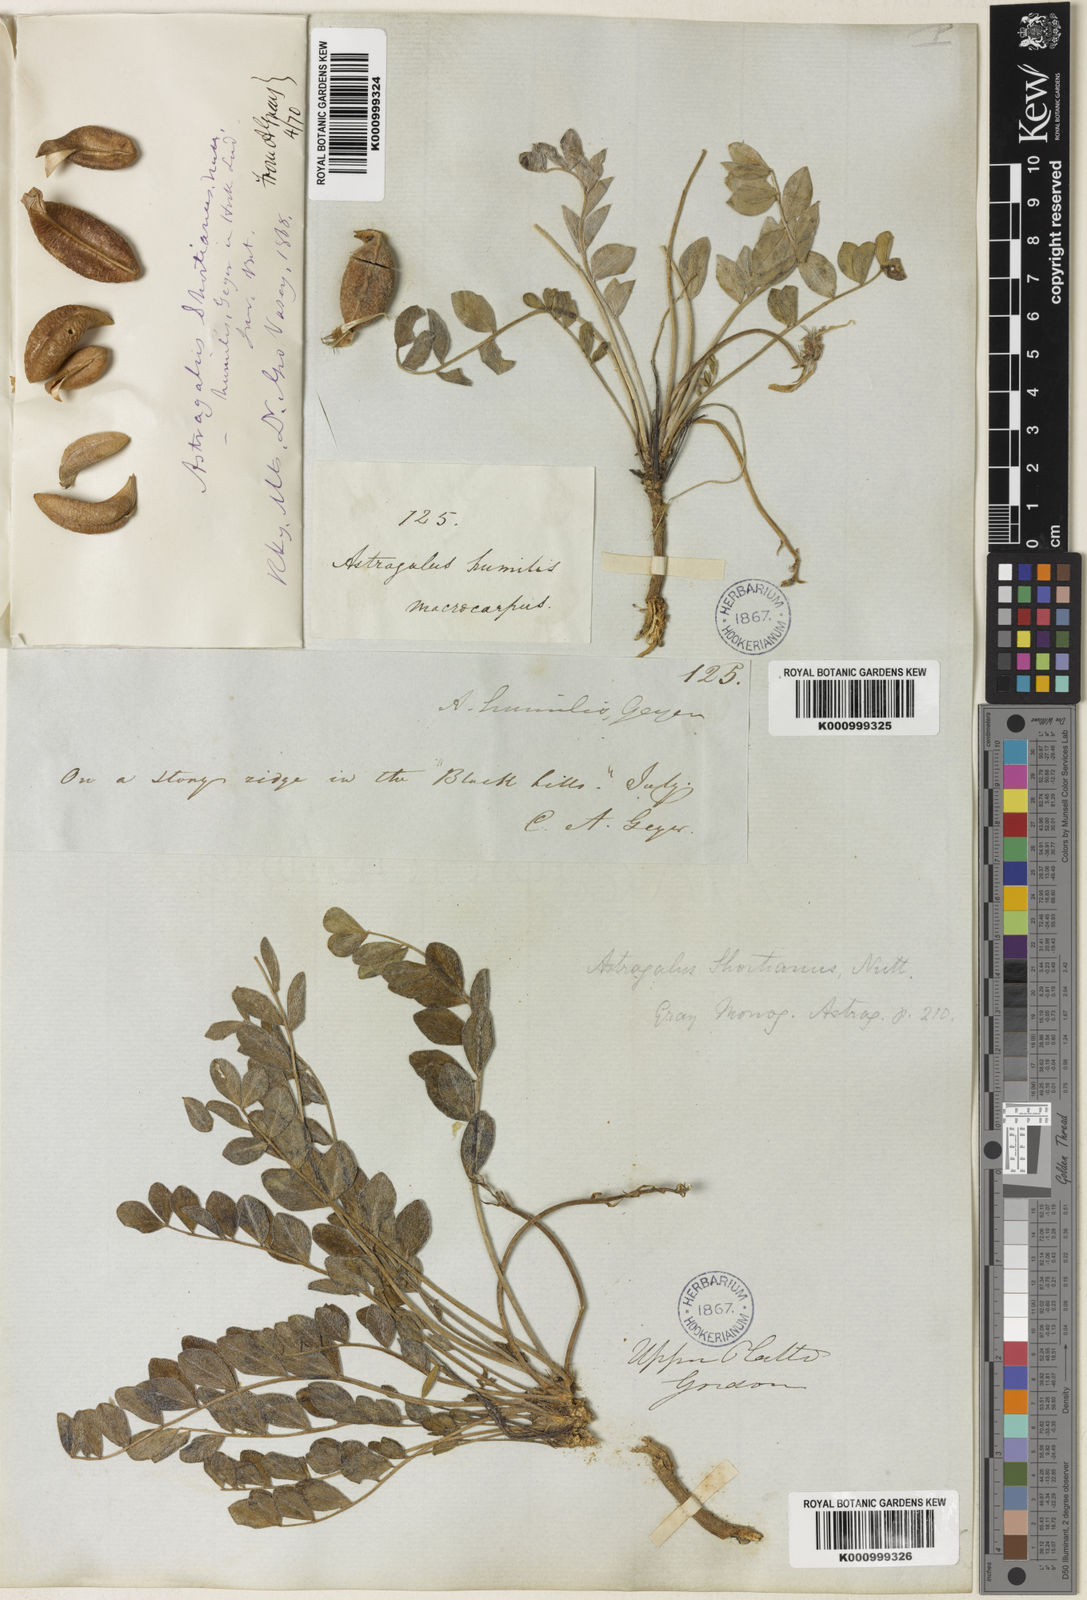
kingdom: Plantae
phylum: Tracheophyta
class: Magnoliopsida
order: Fabales
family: Fabaceae
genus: Astragalus
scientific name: Astragalus shortianus
